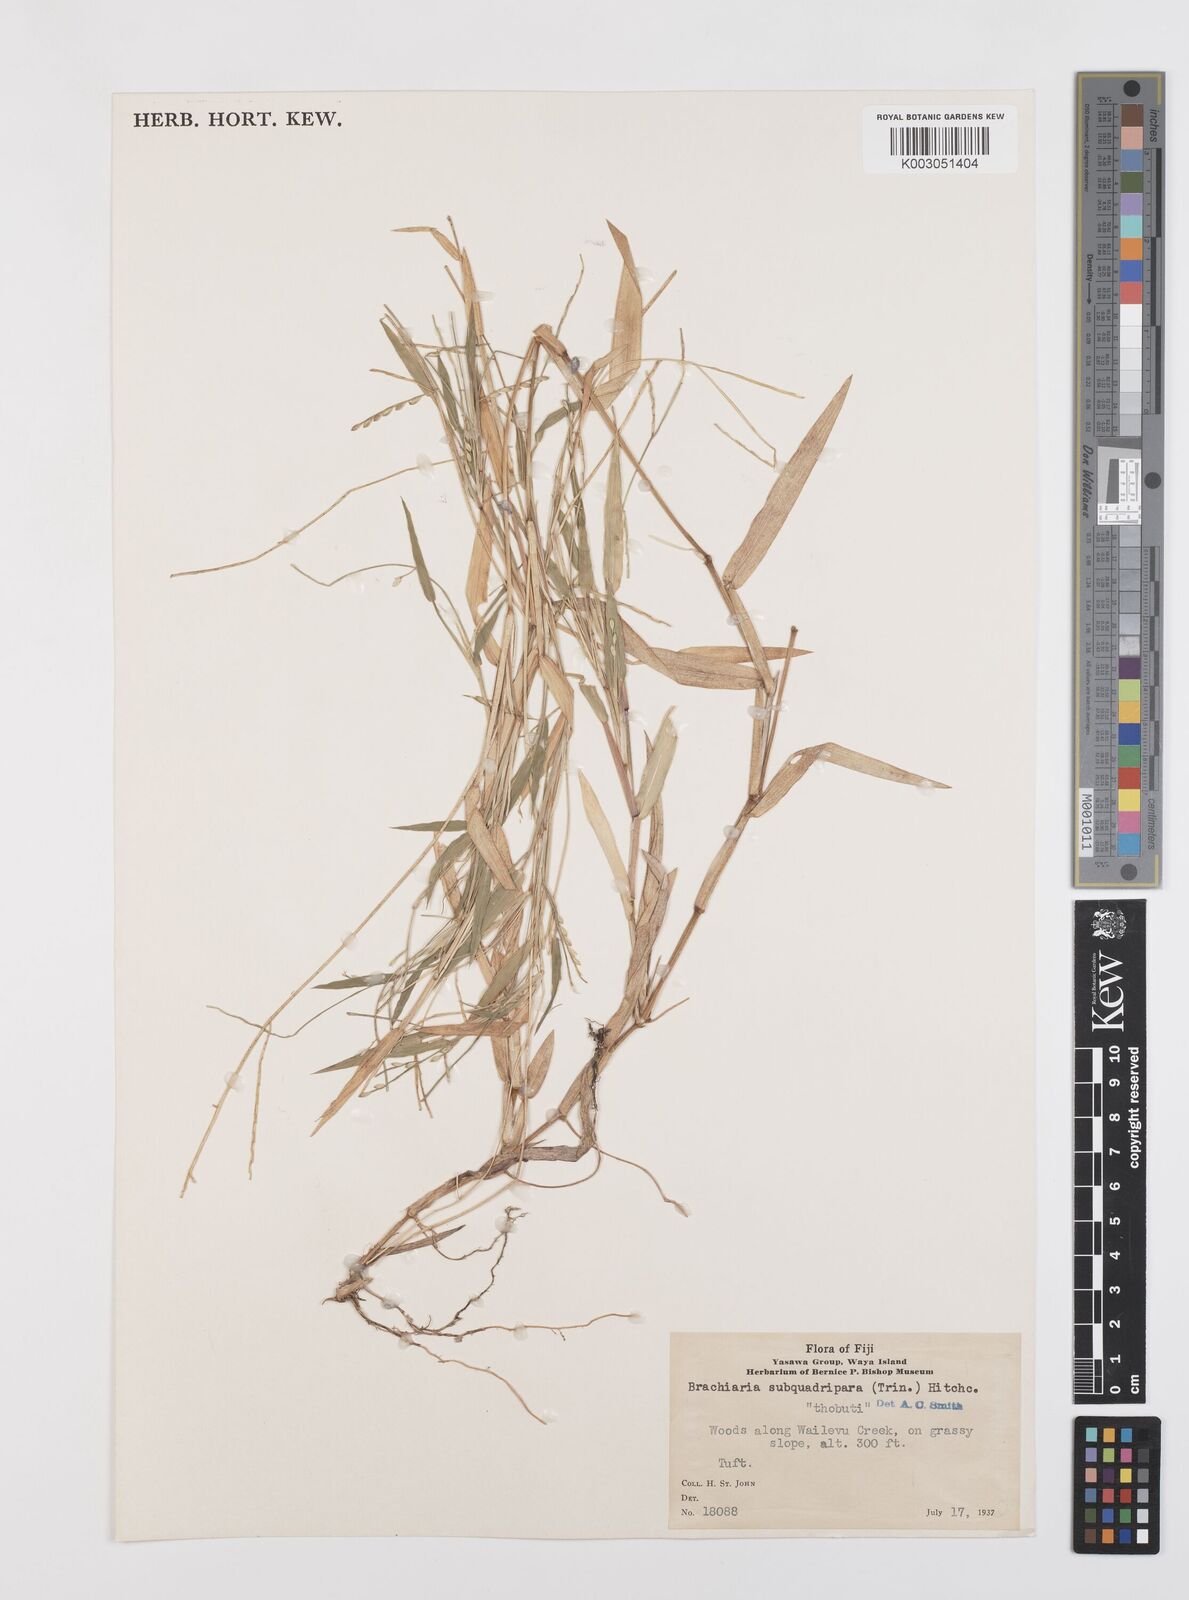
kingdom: Plantae
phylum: Tracheophyta
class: Liliopsida
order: Poales
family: Poaceae
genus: Urochloa
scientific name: Urochloa subquadripara
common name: Armgrass millet
